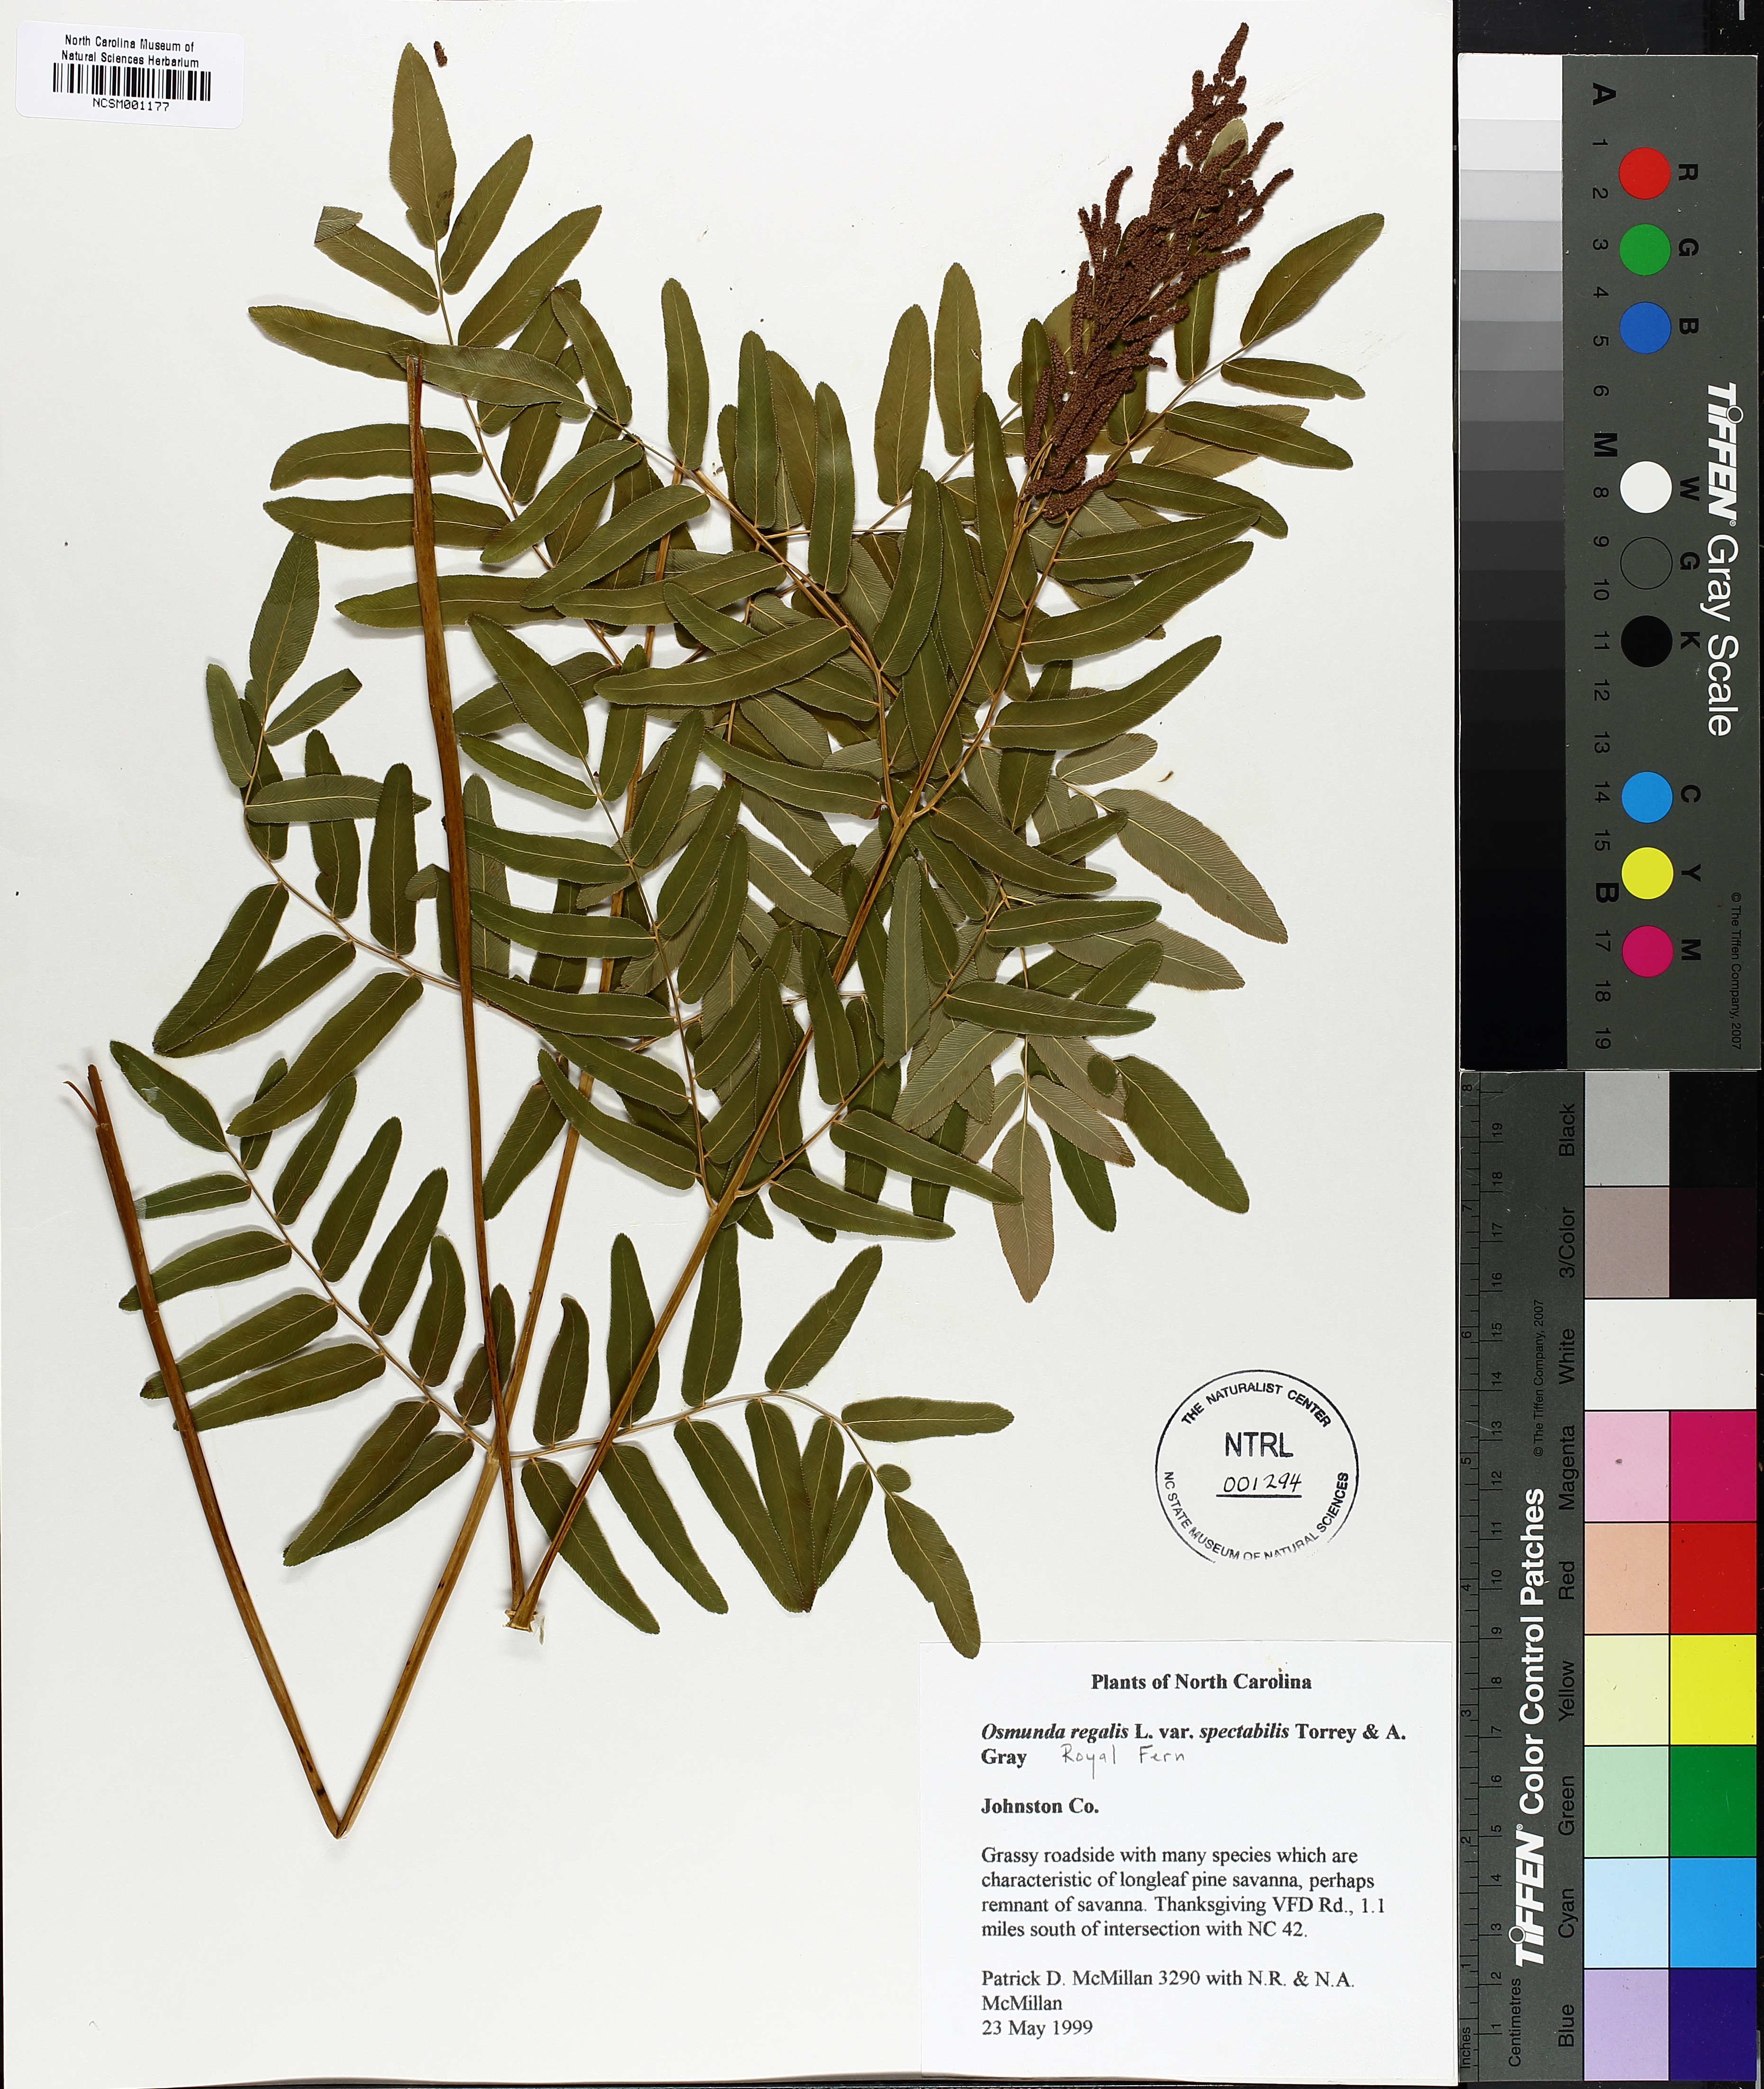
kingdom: Plantae
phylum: Tracheophyta
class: Polypodiopsida
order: Osmundales
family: Osmundaceae
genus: Osmunda
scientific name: Osmunda spectabilis
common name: American royal fern
